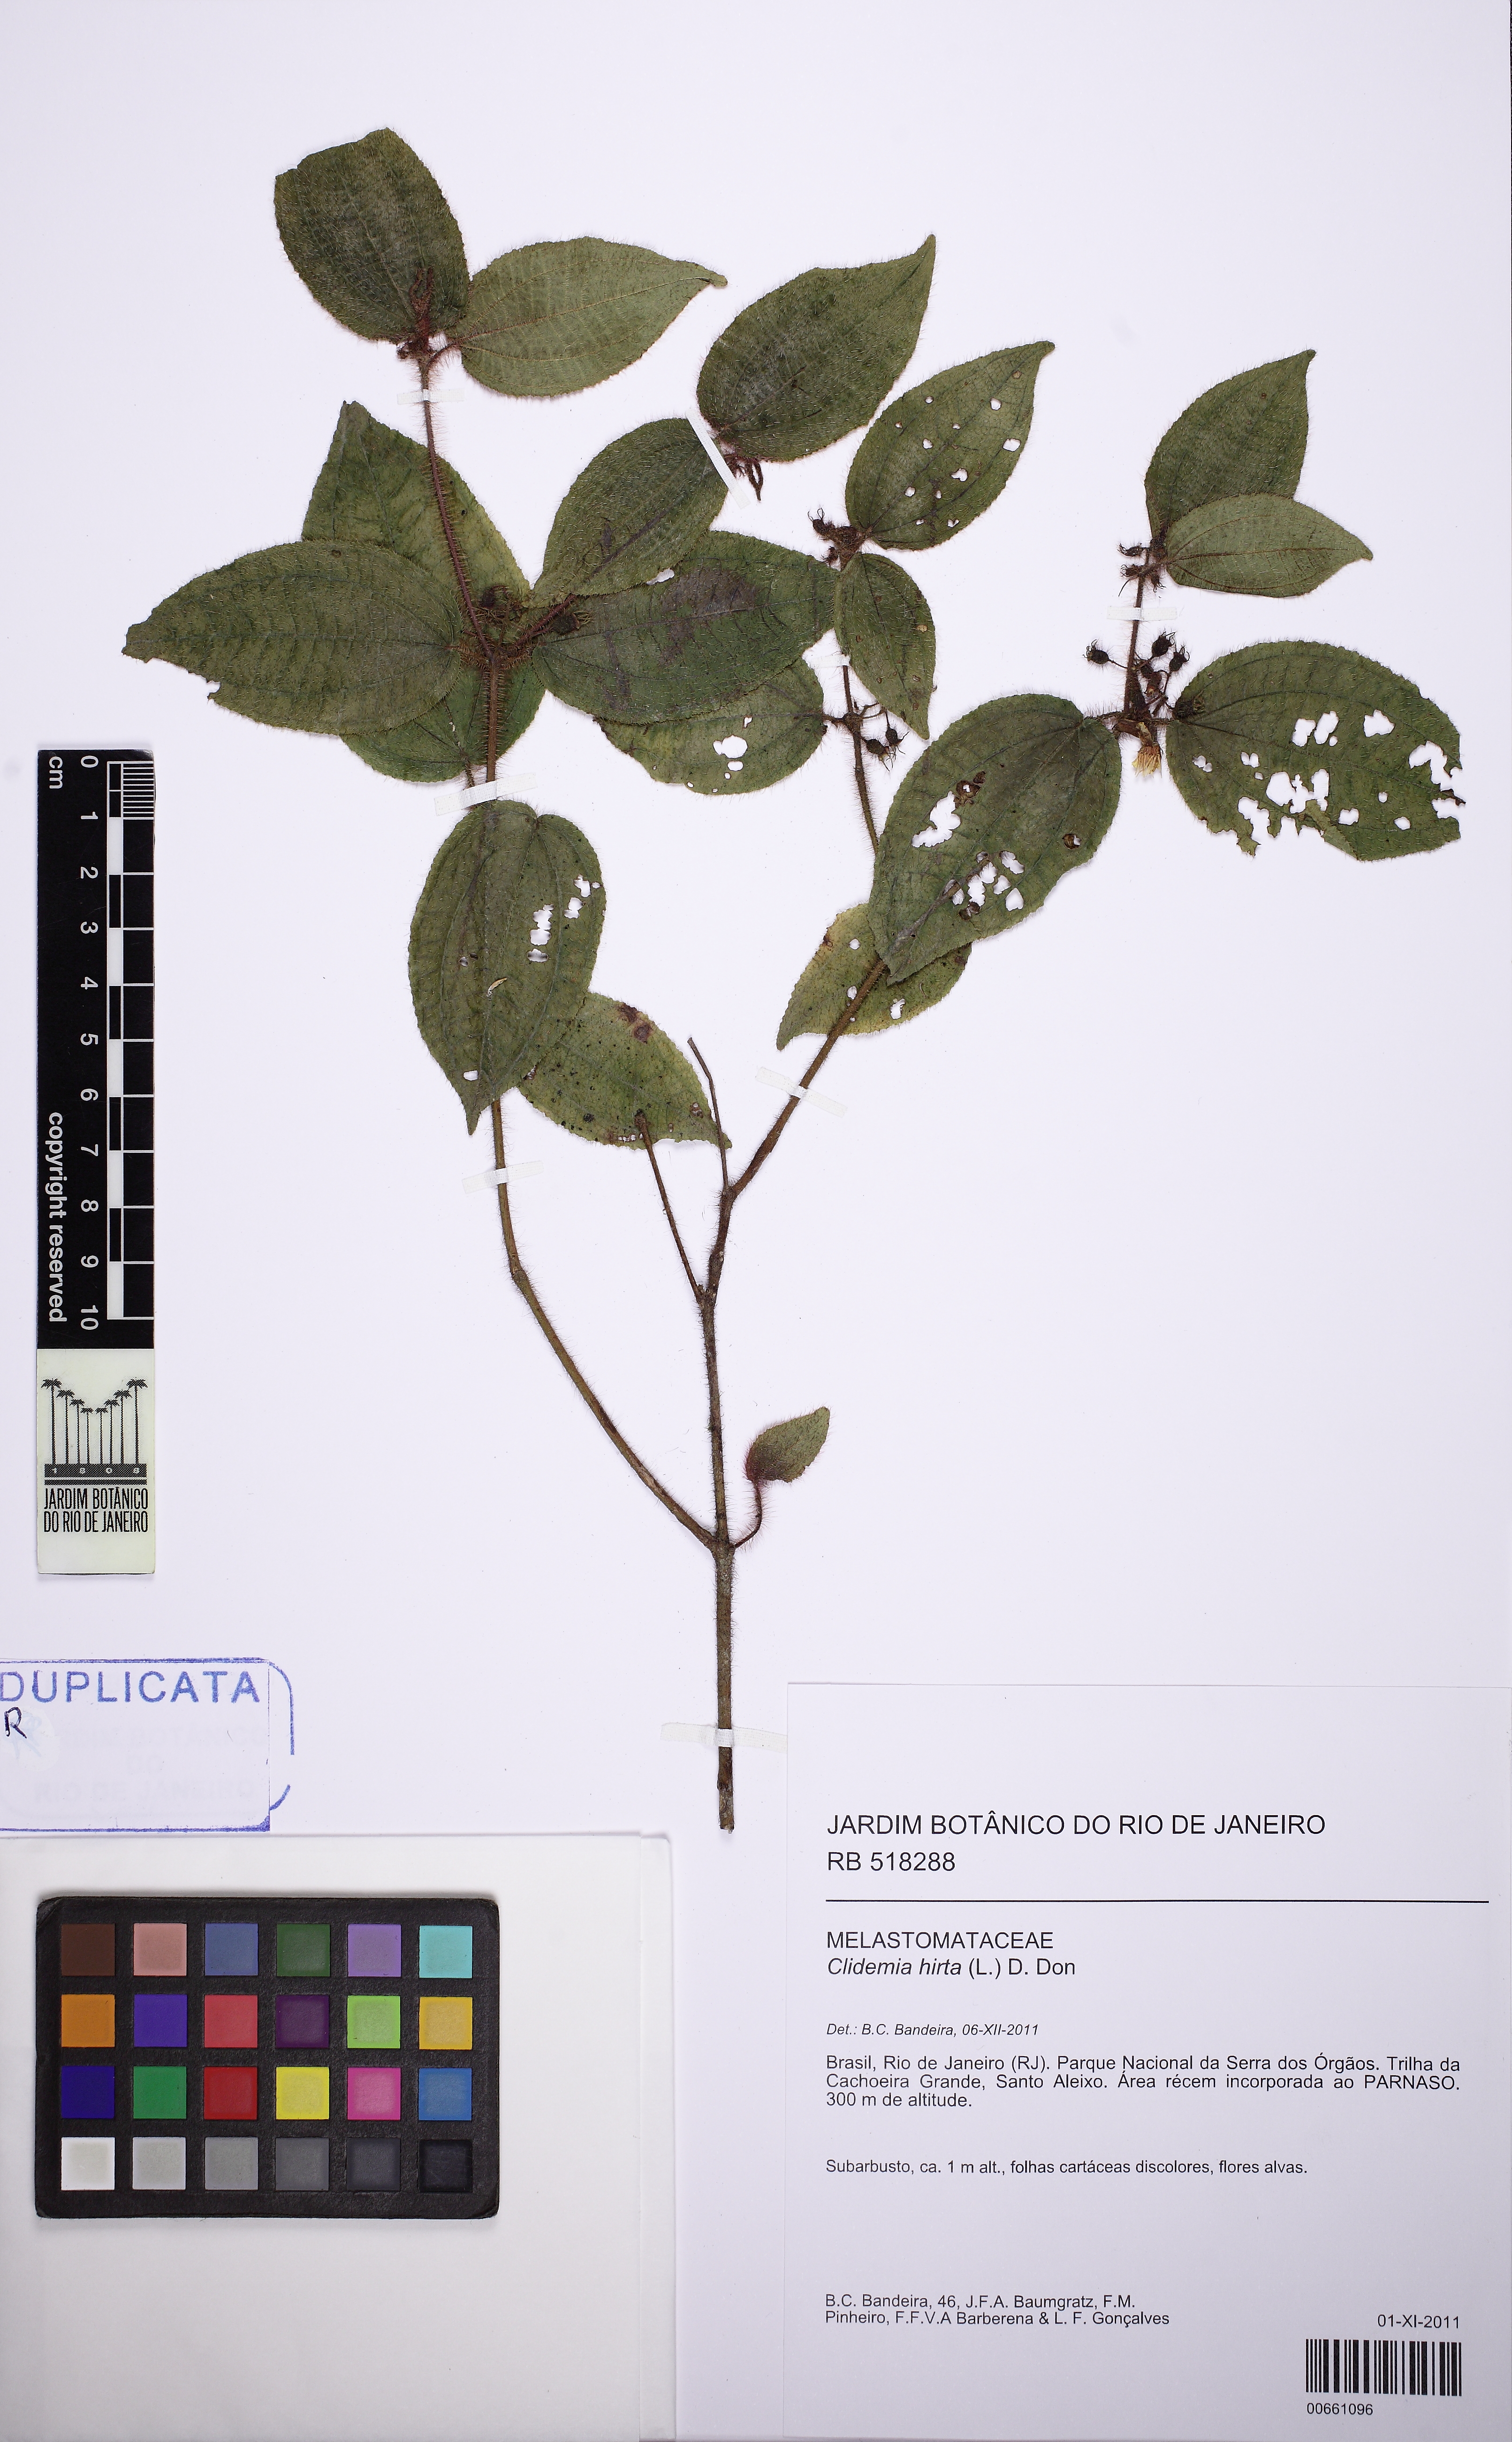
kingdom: Plantae
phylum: Tracheophyta
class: Magnoliopsida
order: Myrtales
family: Melastomataceae
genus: Miconia
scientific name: Miconia crenata
